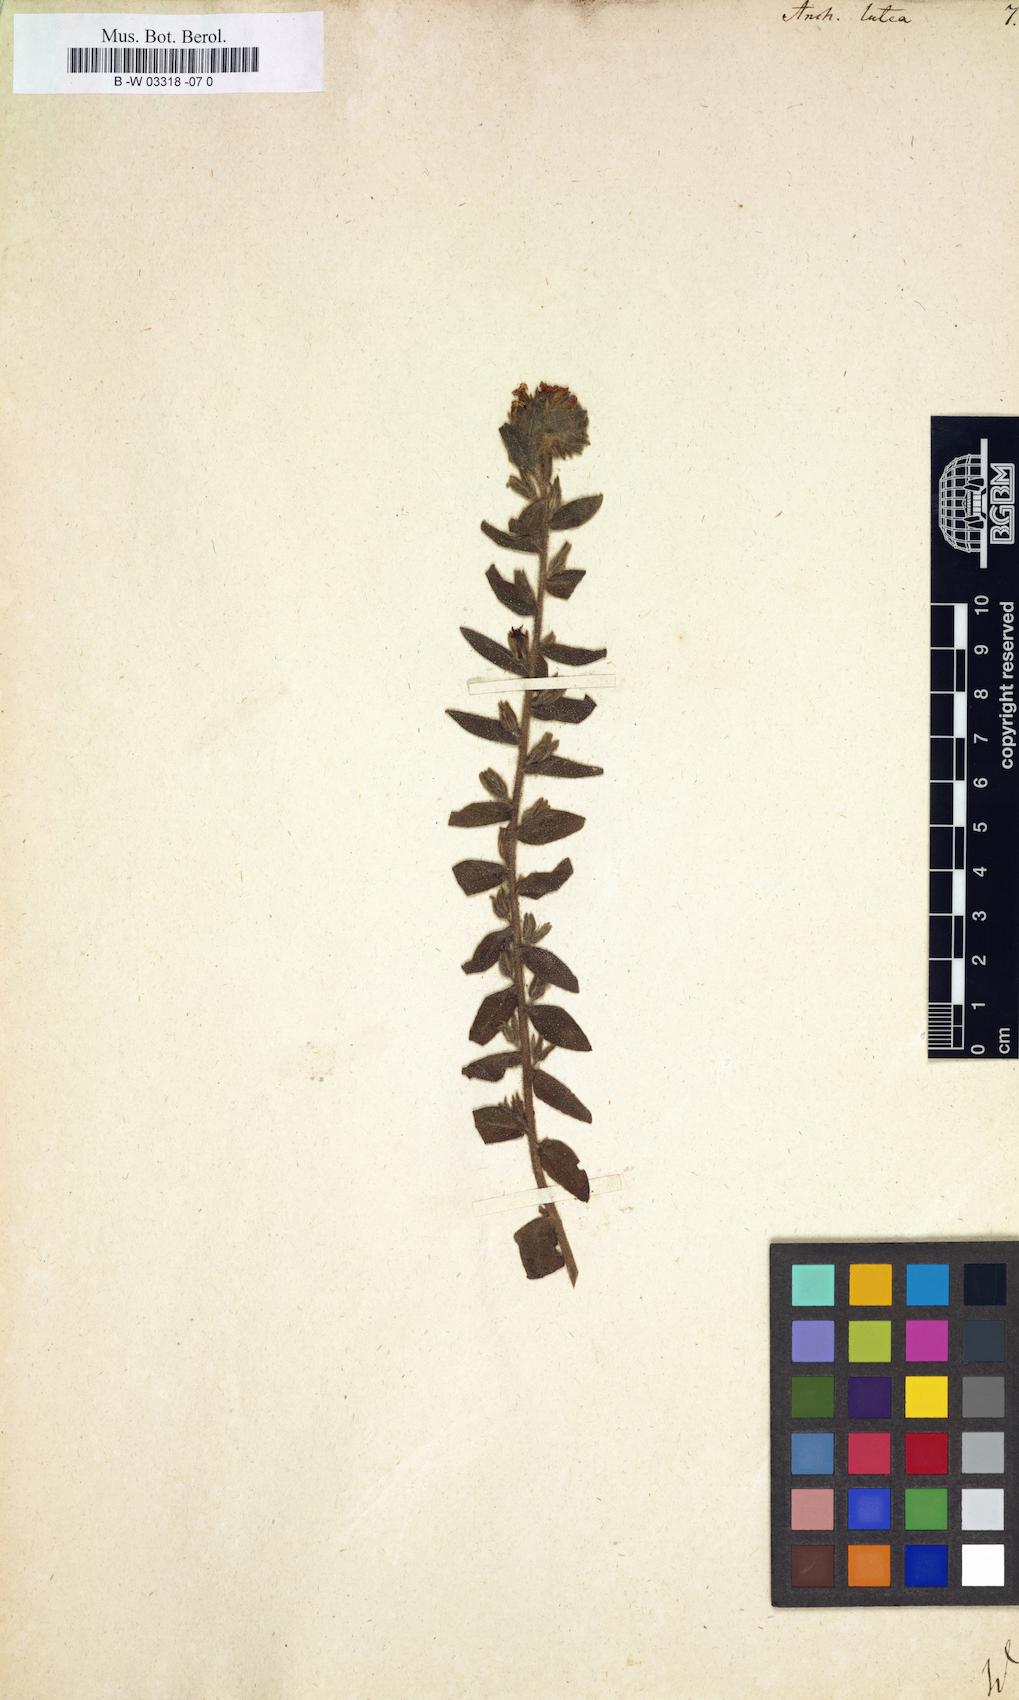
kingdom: Plantae
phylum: Tracheophyta
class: Magnoliopsida
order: Boraginales
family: Boraginaceae
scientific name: Boraginaceae
